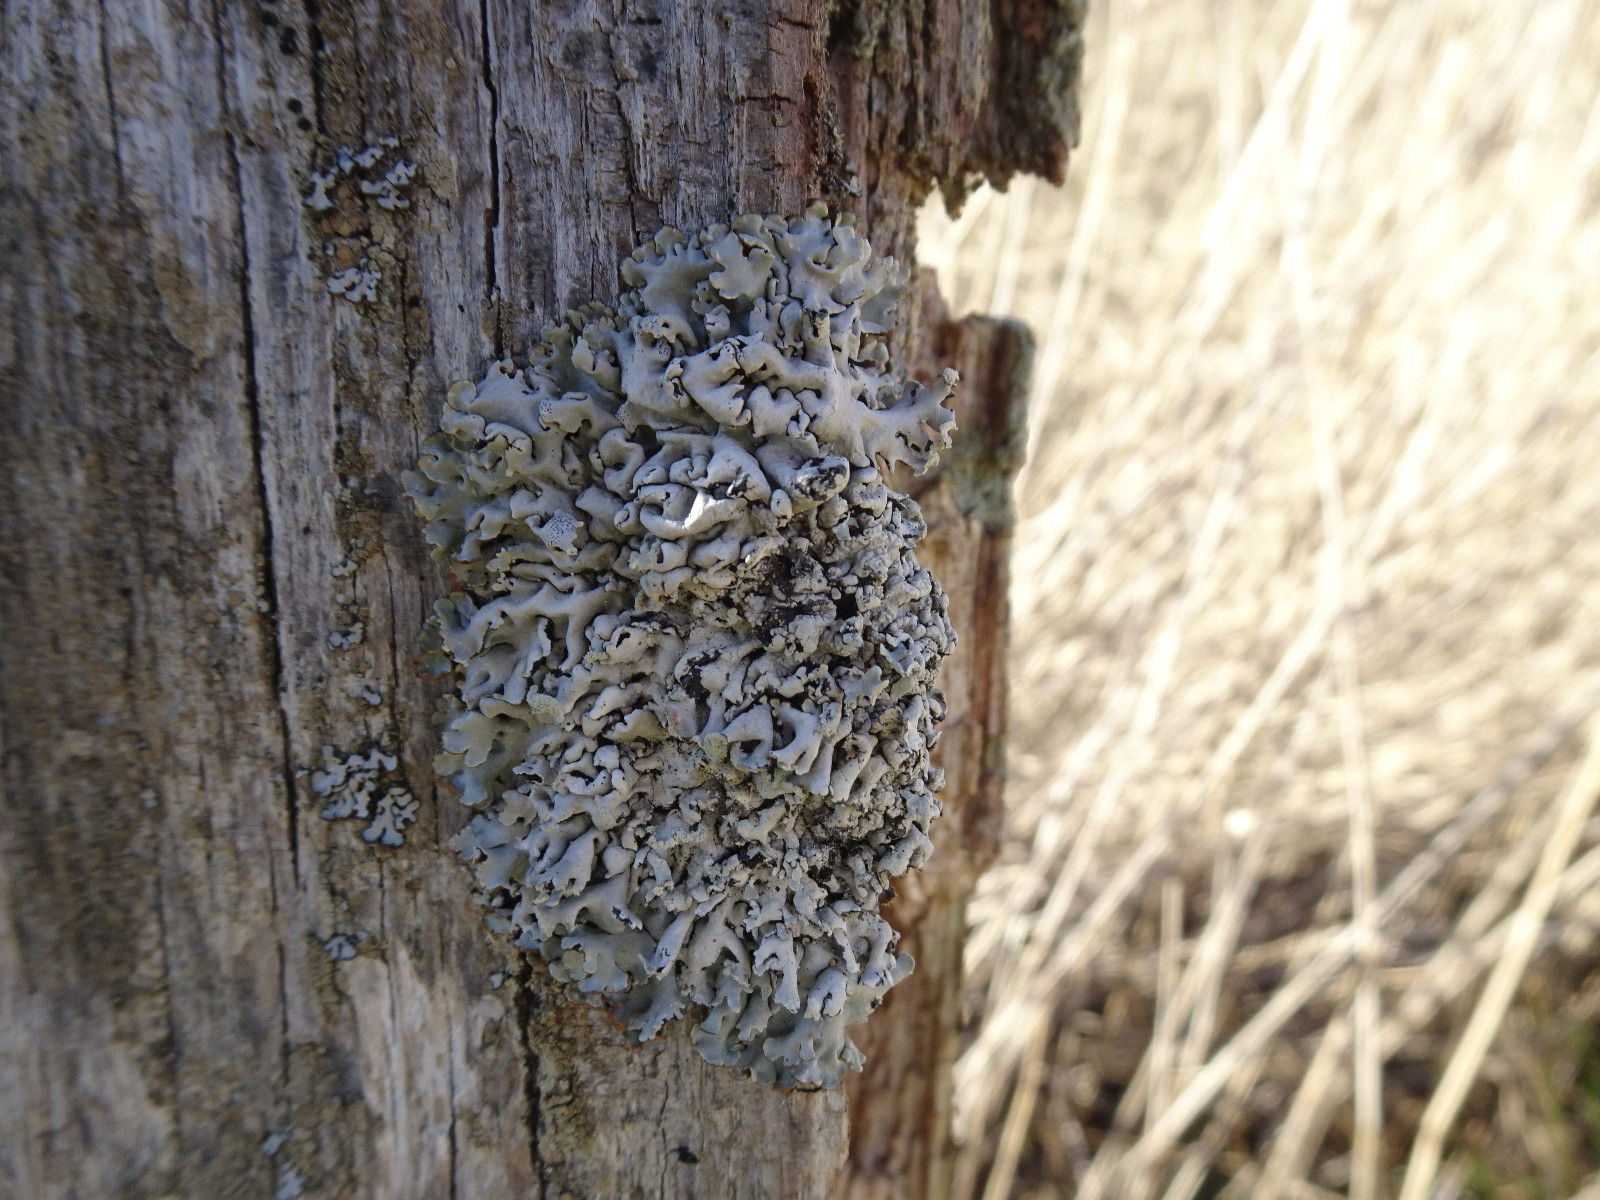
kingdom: Fungi
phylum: Ascomycota
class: Lecanoromycetes
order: Lecanorales
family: Parmeliaceae
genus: Hypogymnia
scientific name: Hypogymnia physodes
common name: almindelig kvistlav
